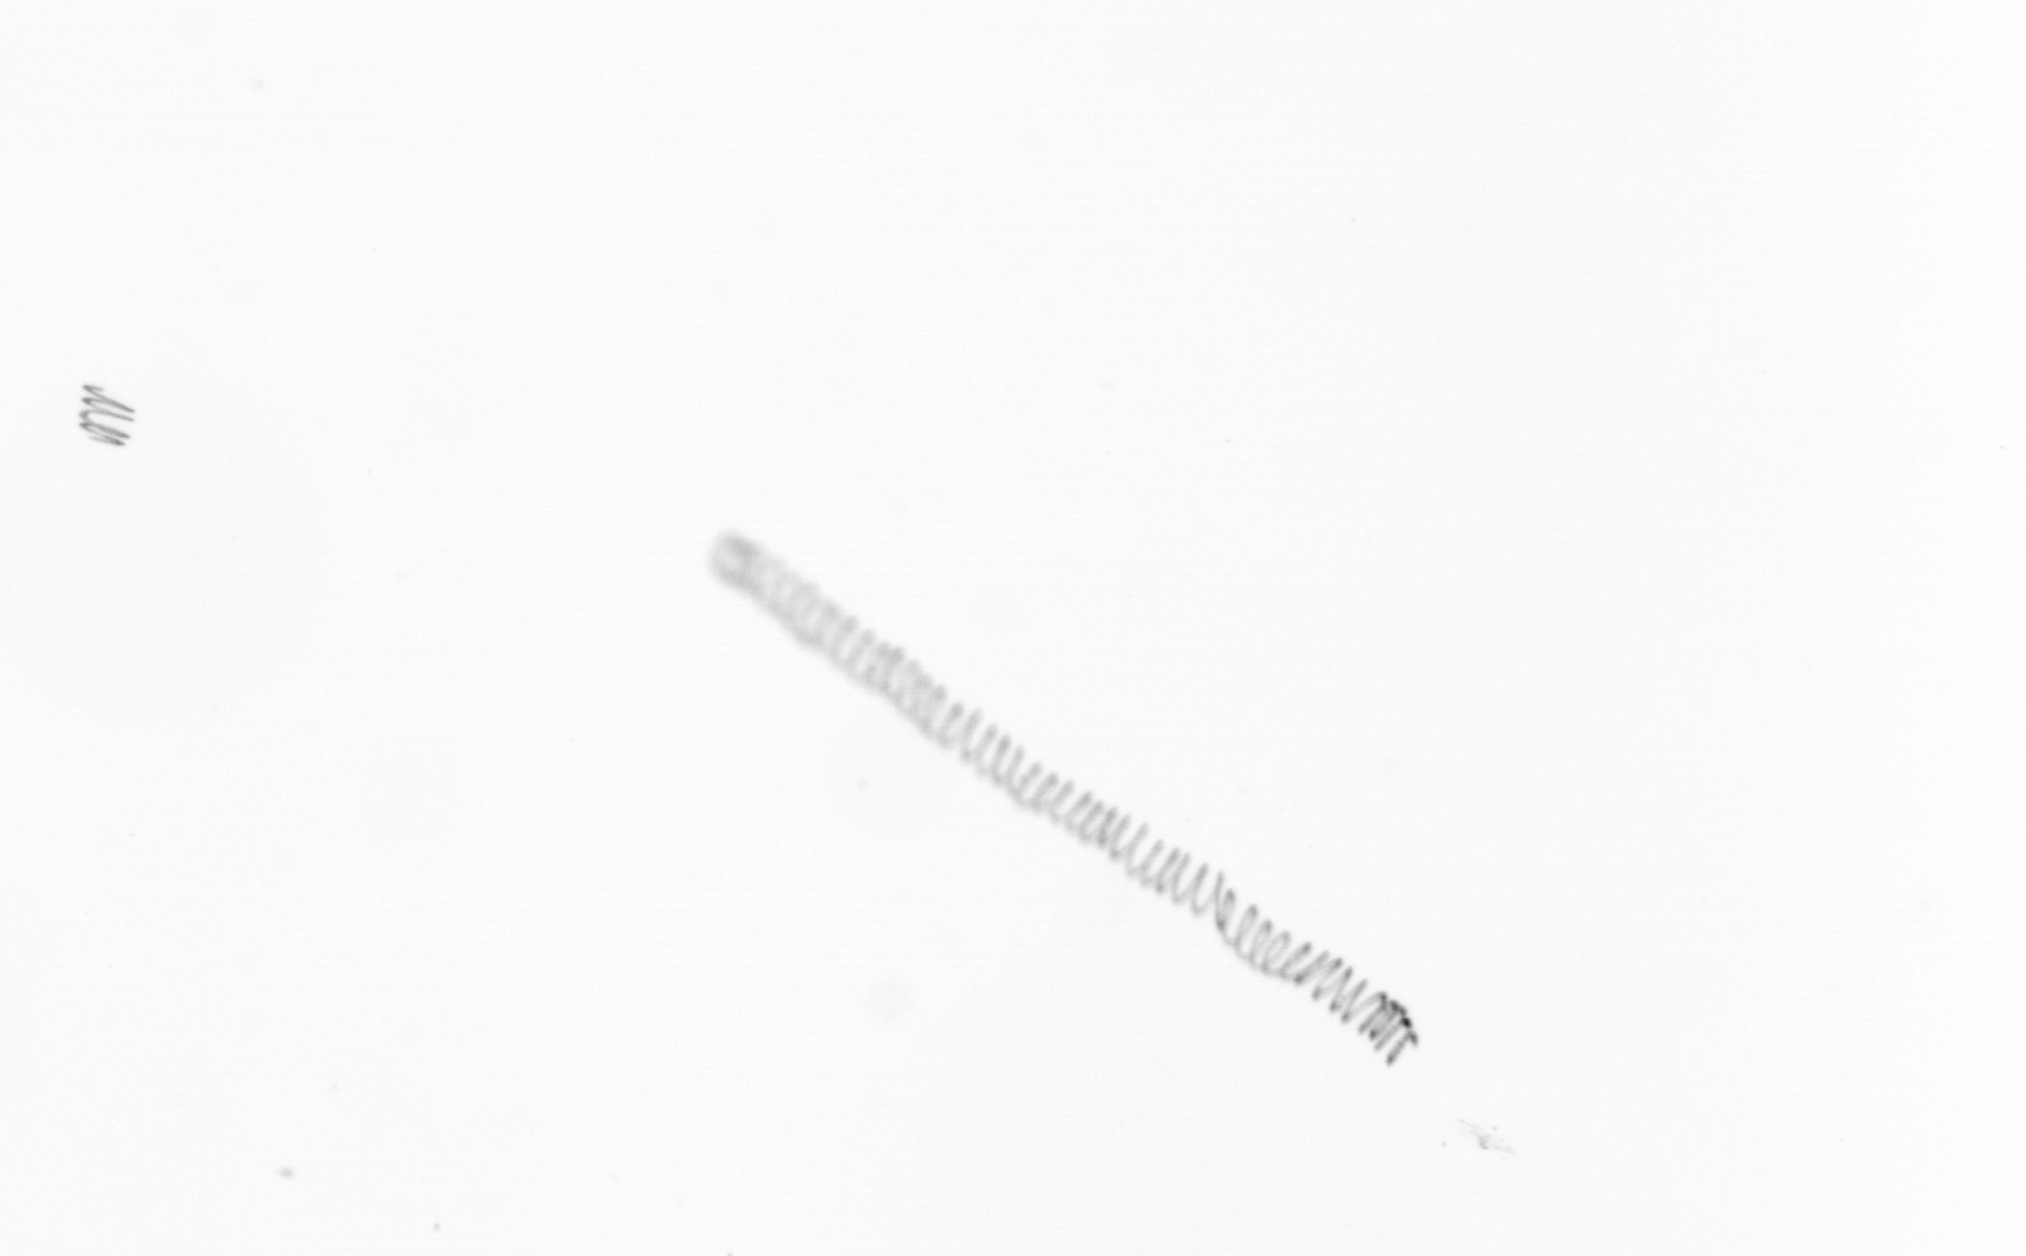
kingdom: Chromista
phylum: Ochrophyta
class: Bacillariophyceae
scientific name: Bacillariophyceae
